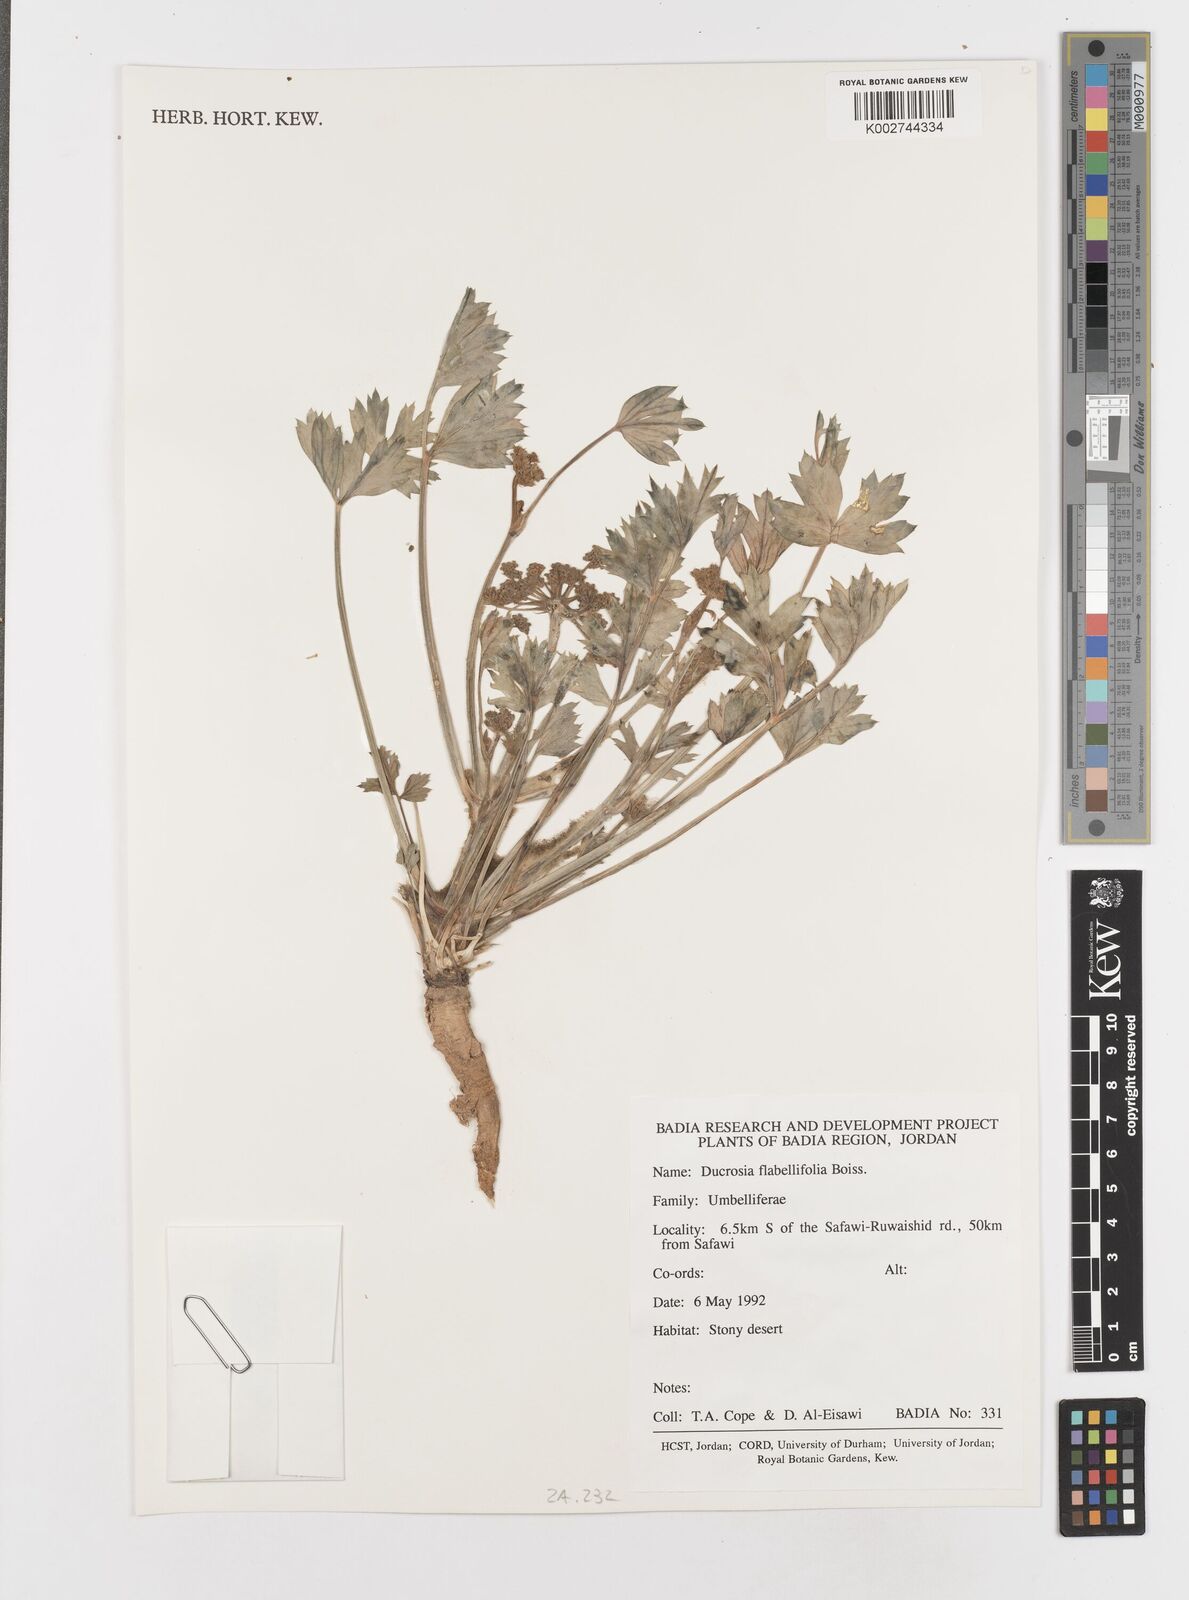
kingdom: Plantae
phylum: Tracheophyta
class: Magnoliopsida
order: Apiales
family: Apiaceae
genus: Ducrosia
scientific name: Ducrosia flabellifolia
